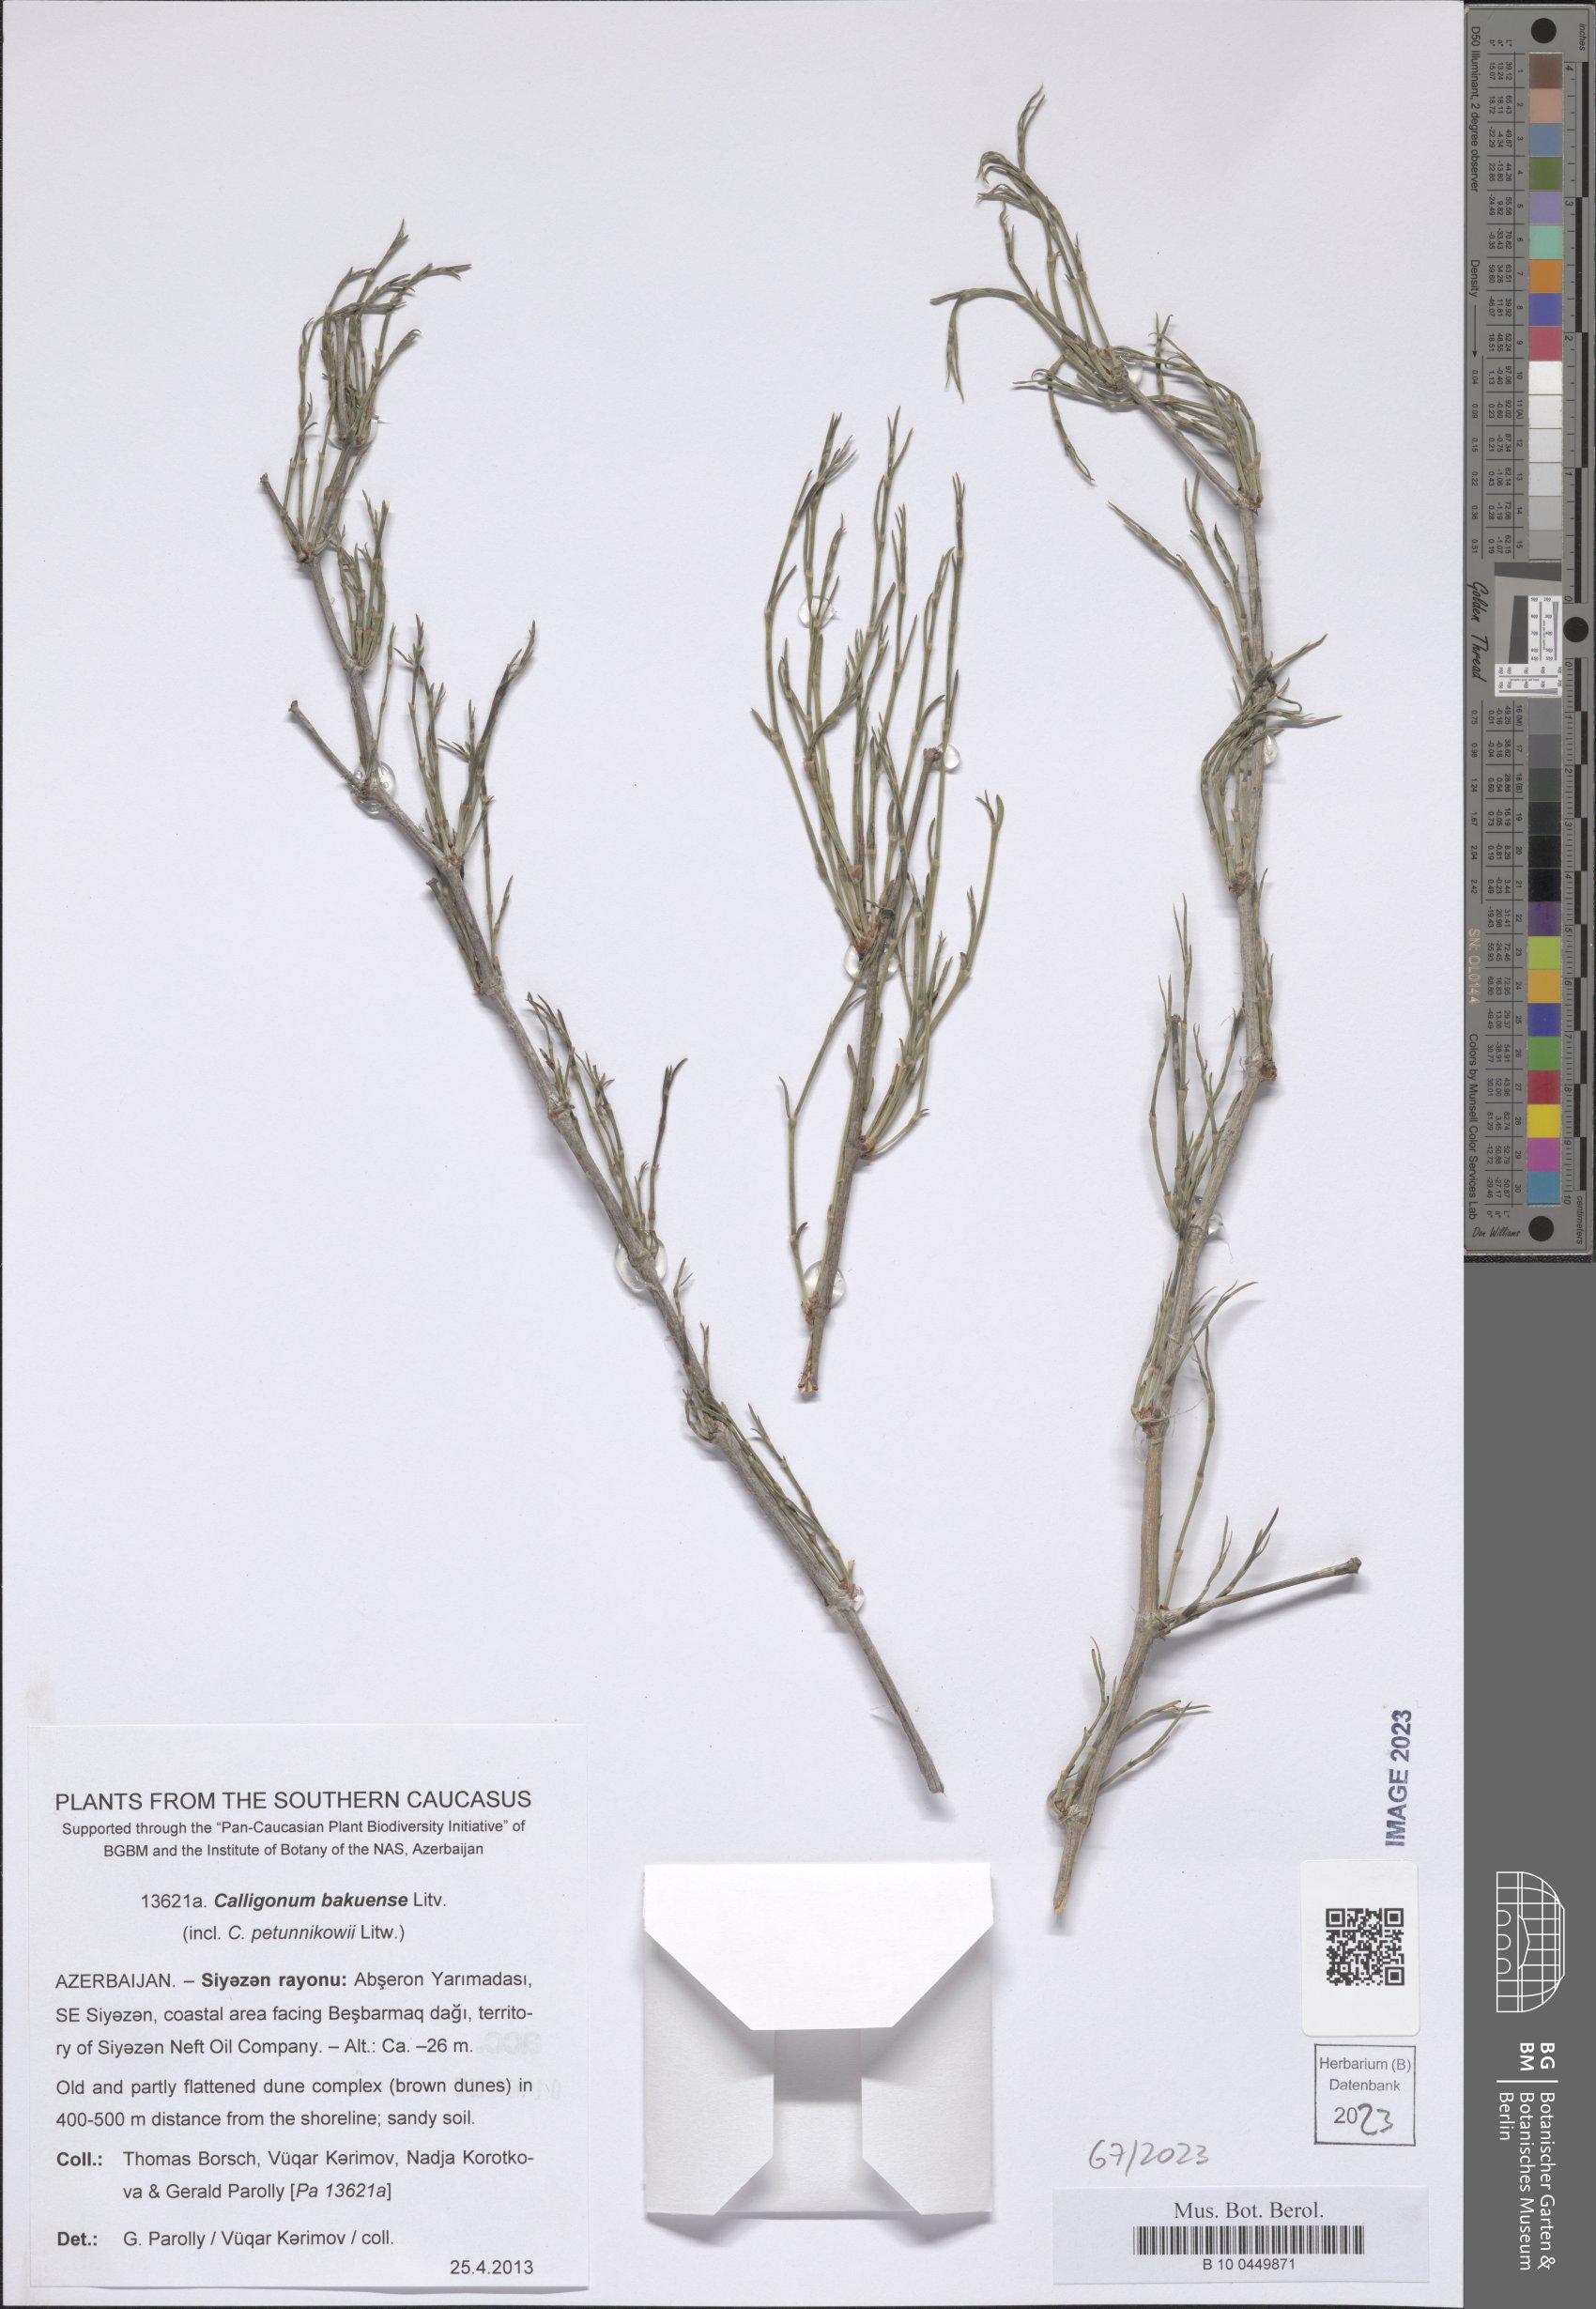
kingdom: Plantae
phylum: Tracheophyta
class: Magnoliopsida
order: Caryophyllales
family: Polygonaceae
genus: Calligonum
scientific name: Calligonum bakuense
